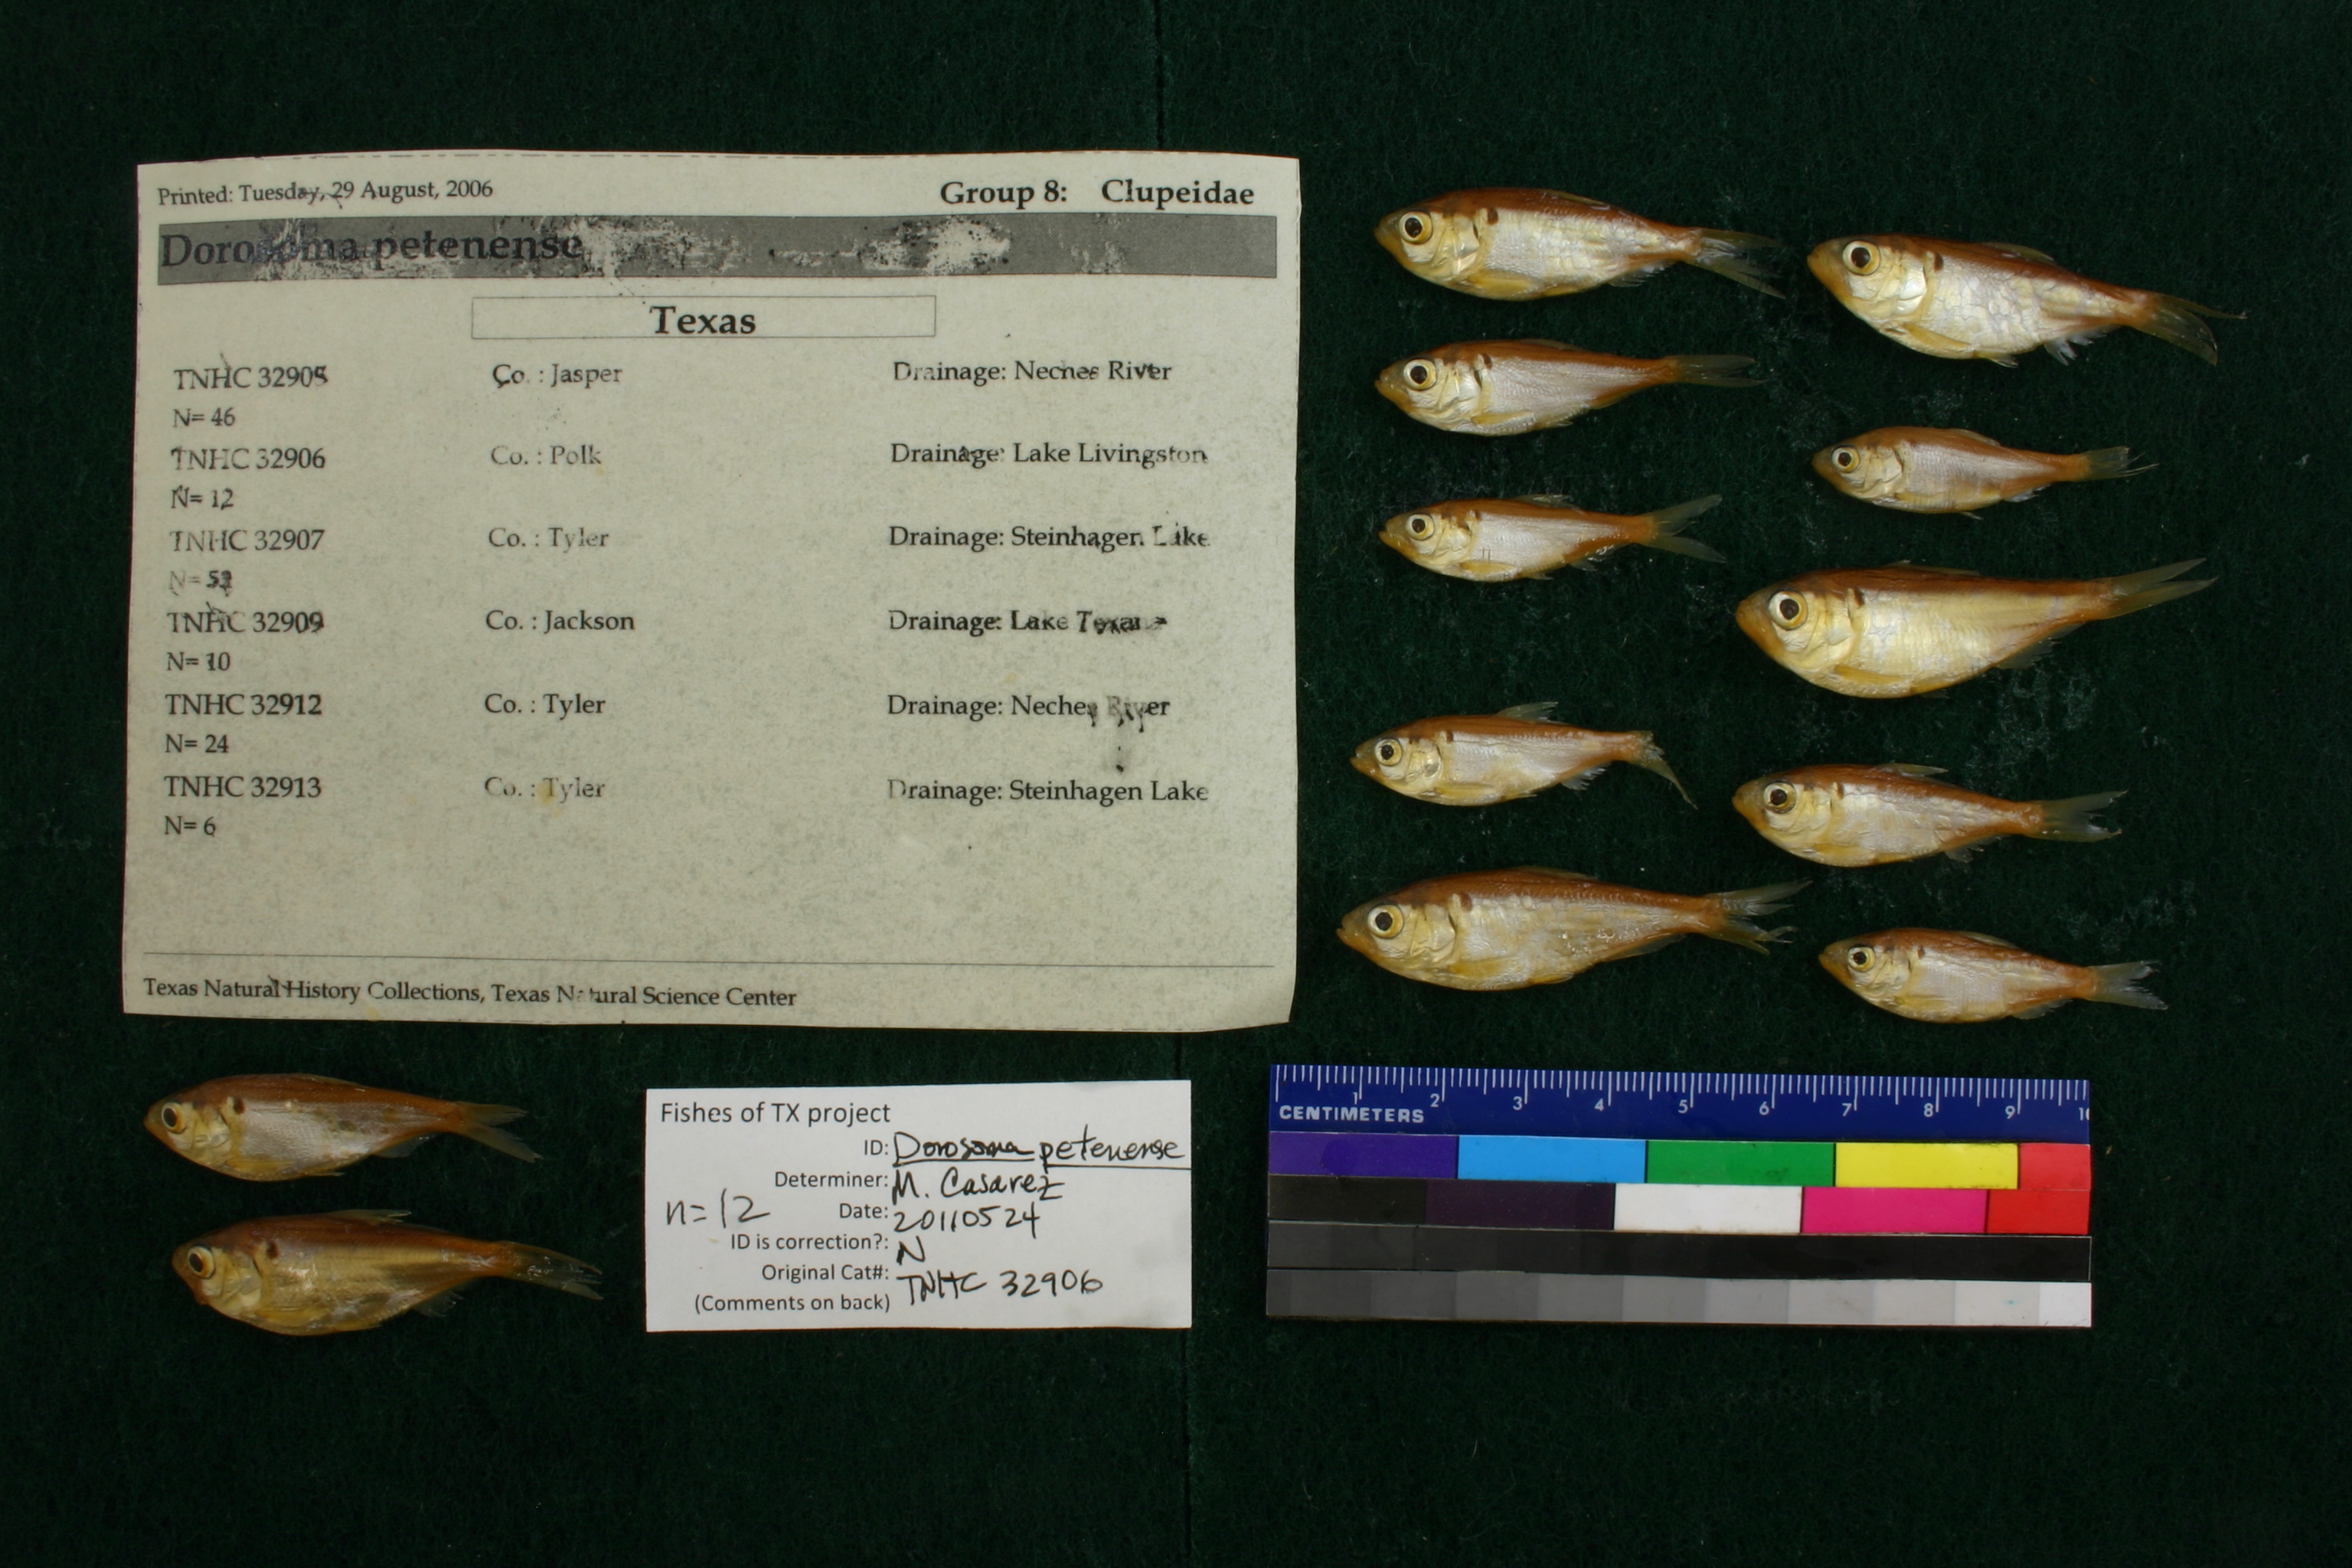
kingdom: Animalia
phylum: Chordata
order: Clupeiformes
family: Clupeidae
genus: Dorosoma
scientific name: Dorosoma petenense
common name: Threadfin shad
